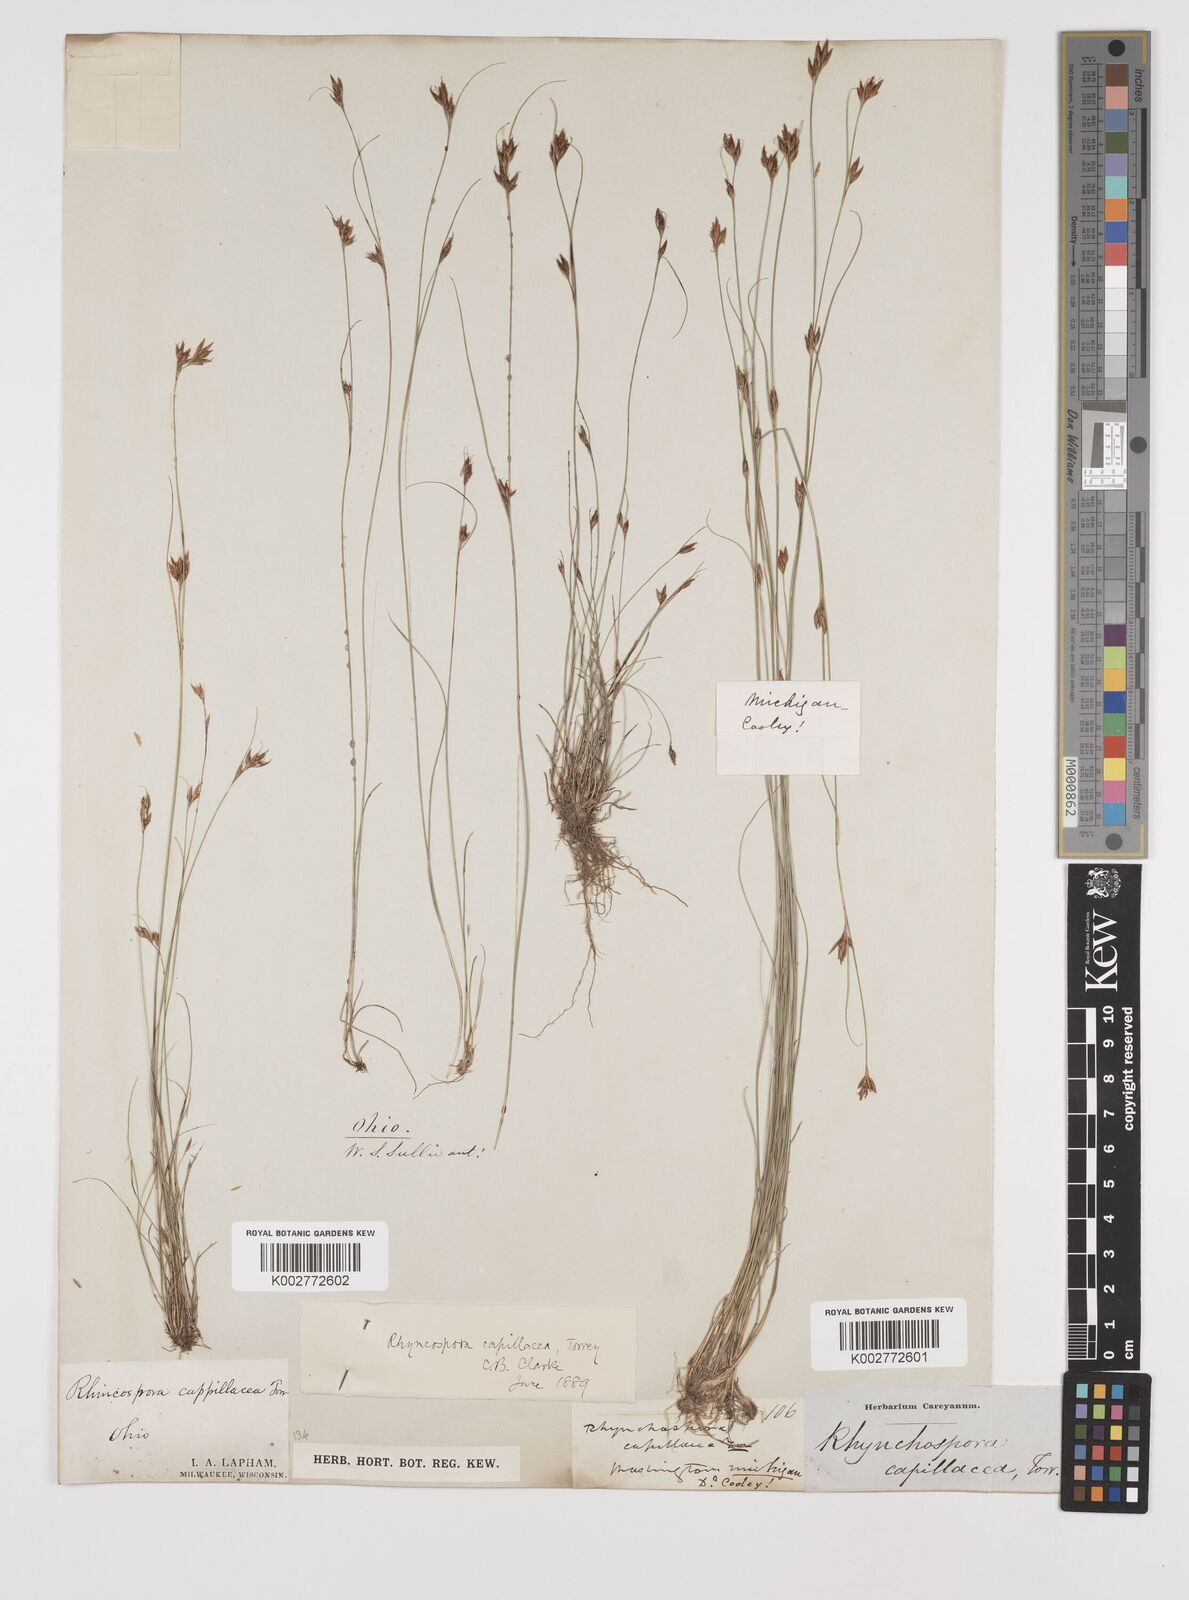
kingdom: Plantae
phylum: Tracheophyta
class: Liliopsida
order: Poales
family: Cyperaceae
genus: Rhynchospora
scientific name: Rhynchospora capillacea
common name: Capillary beakrush
